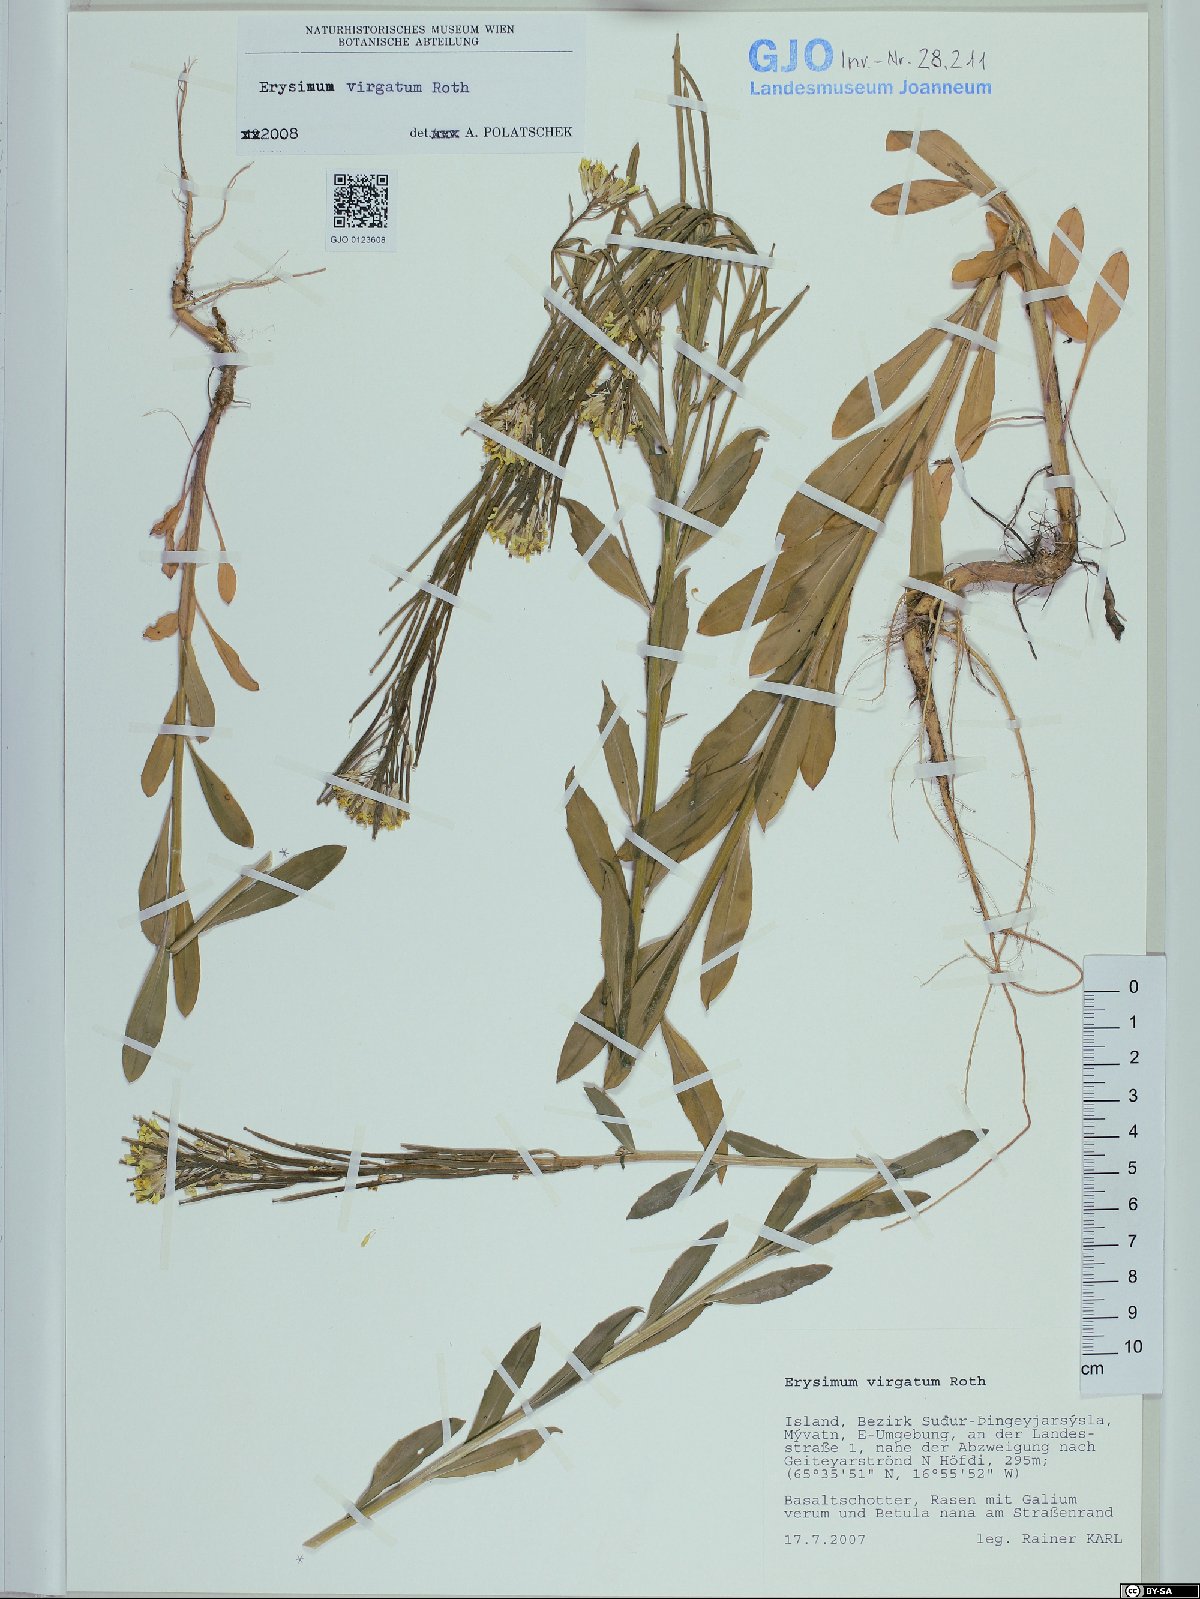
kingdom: Plantae
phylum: Tracheophyta
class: Magnoliopsida
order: Brassicales
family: Brassicaceae
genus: Erysimum
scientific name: Erysimum virgatum
